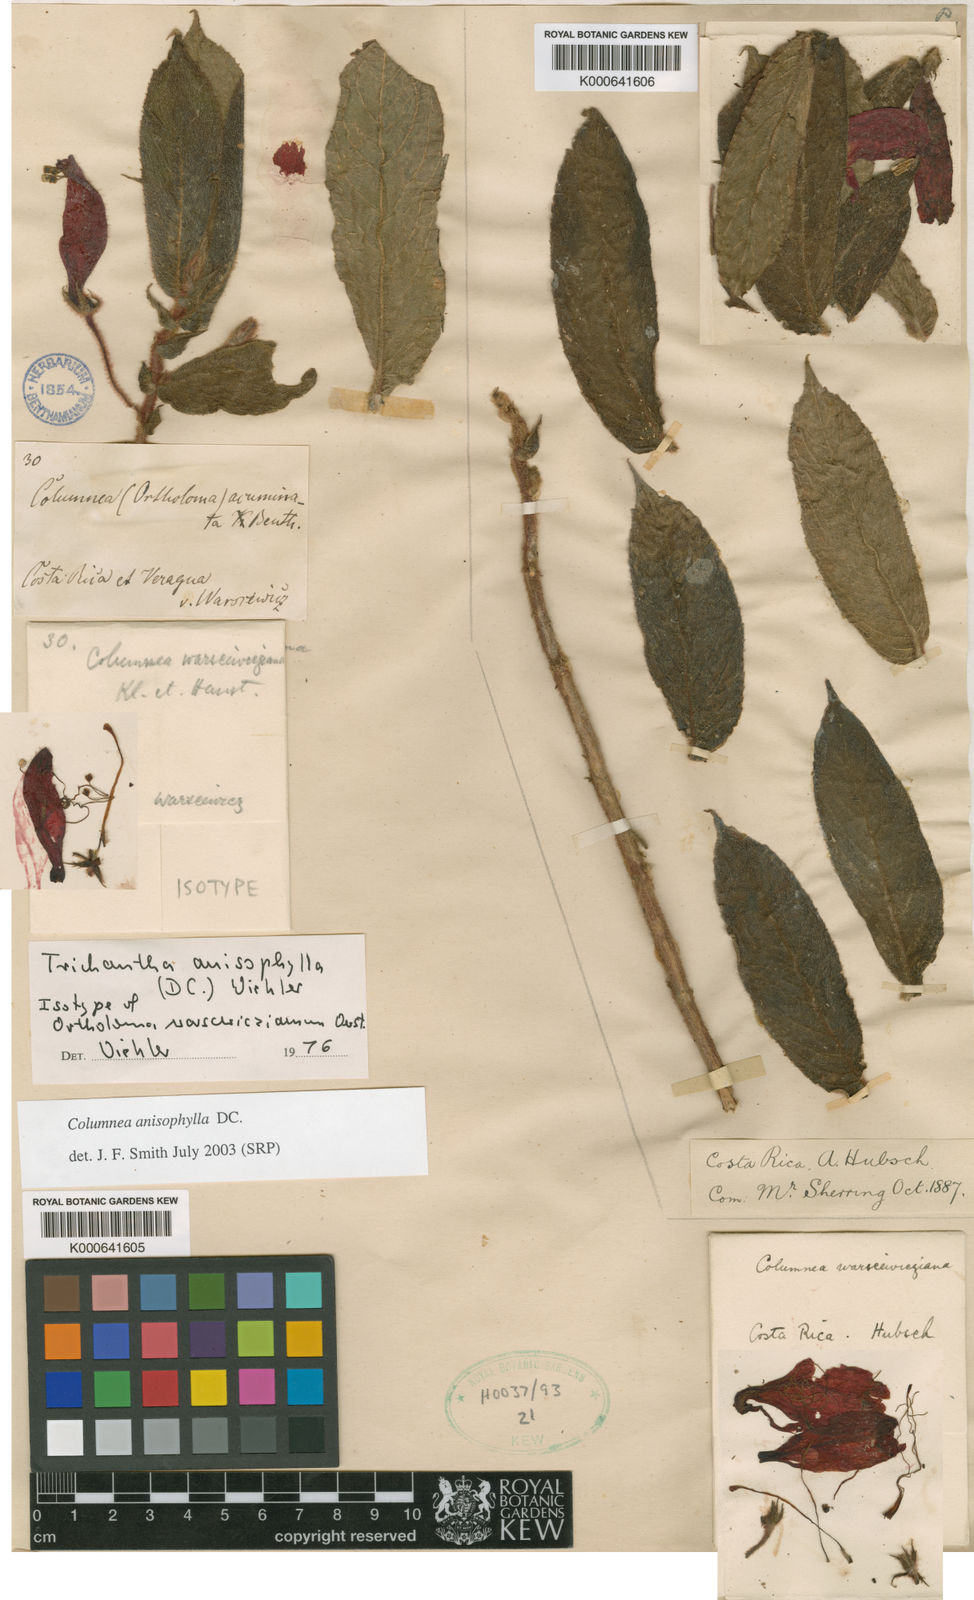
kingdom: Plantae
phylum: Tracheophyta
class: Magnoliopsida
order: Lamiales
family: Gesneriaceae
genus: Columnea
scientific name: Columnea anisophylla
